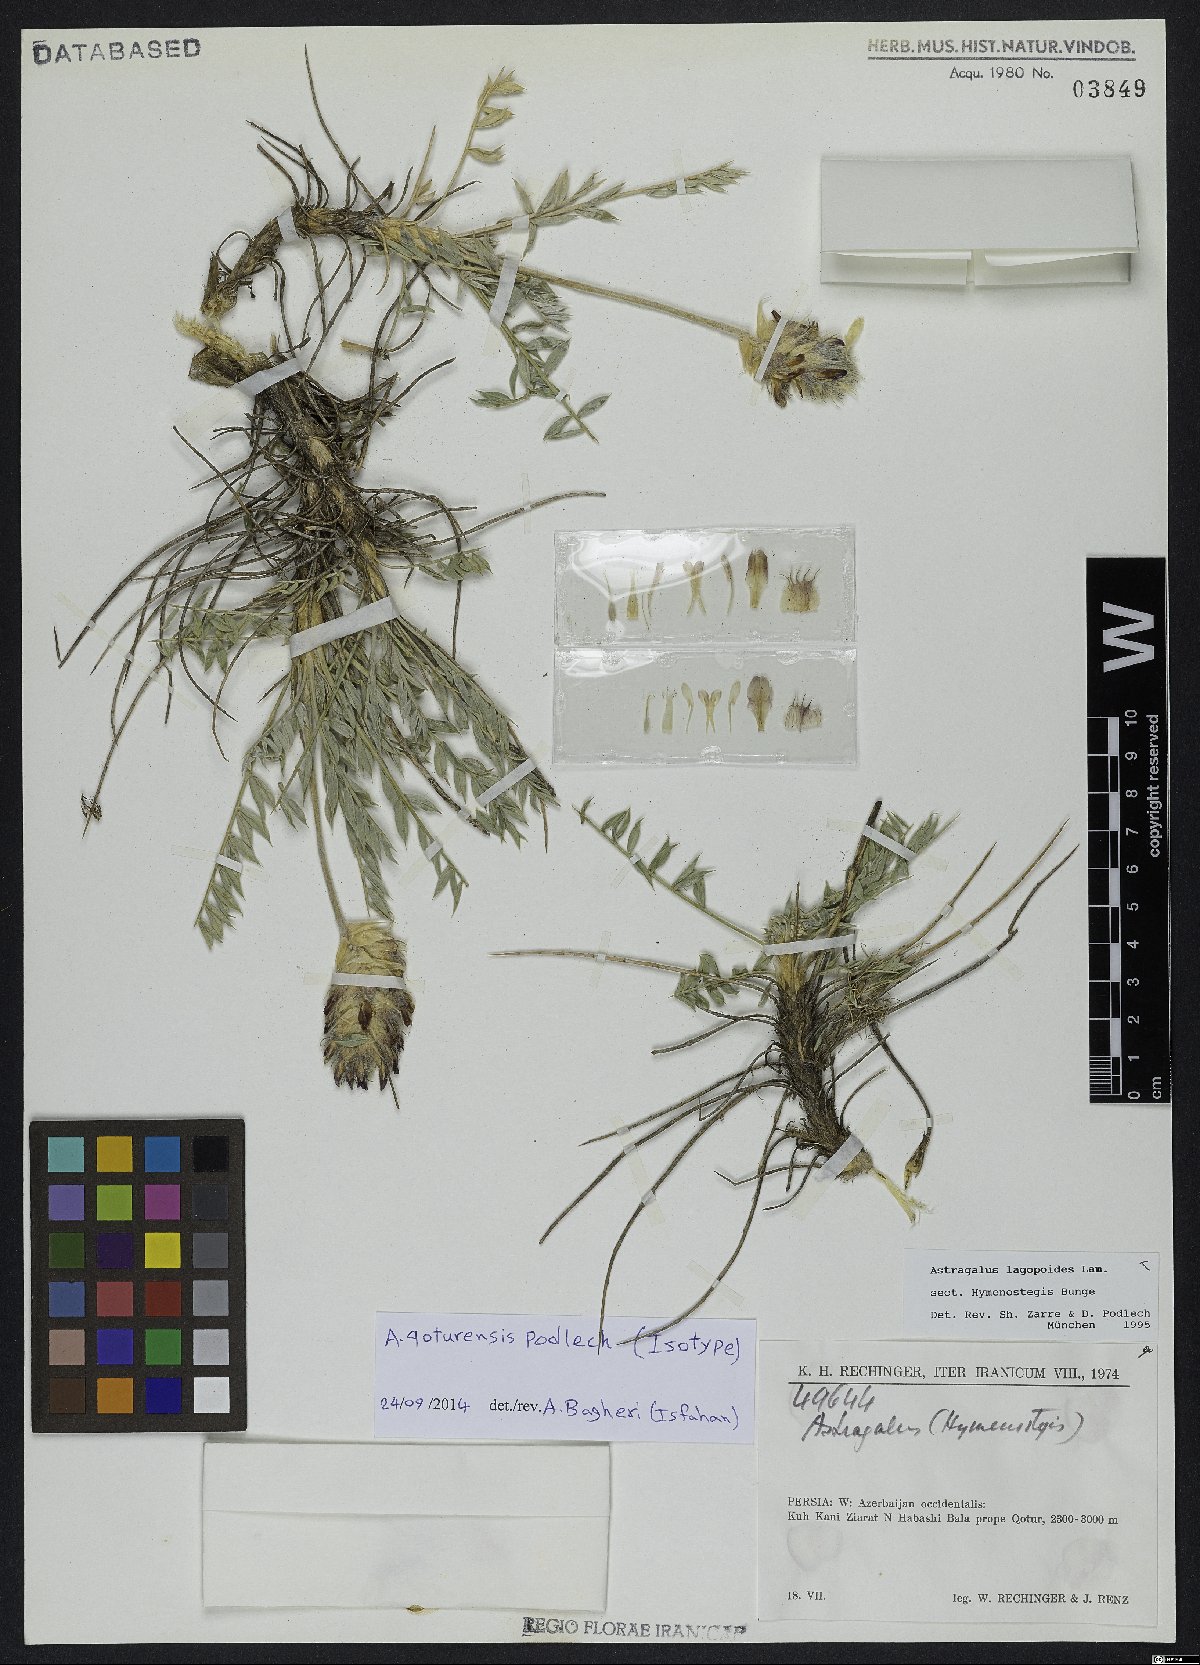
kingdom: Plantae
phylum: Tracheophyta
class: Magnoliopsida
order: Fabales
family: Fabaceae
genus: Astragalus
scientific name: Astragalus qoturensis
